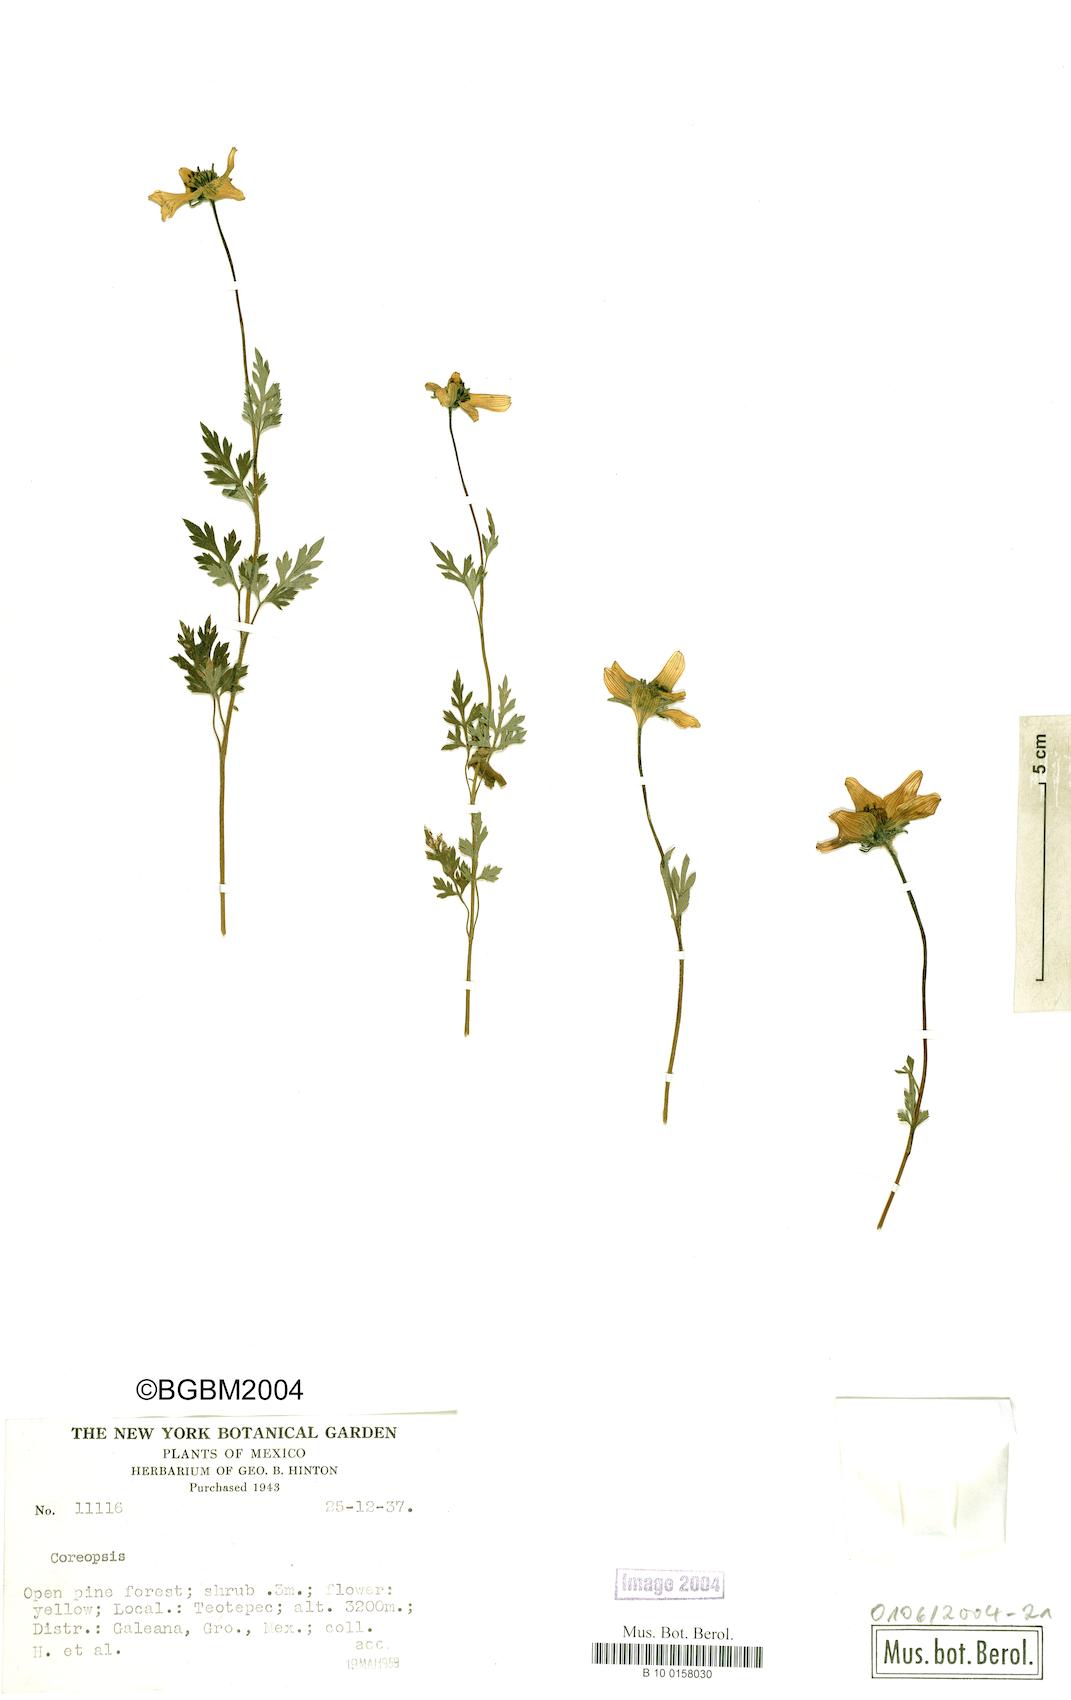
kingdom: Plantae
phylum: Tracheophyta
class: Magnoliopsida
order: Asterales
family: Asteraceae
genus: Coreopsis
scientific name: Coreopsis
